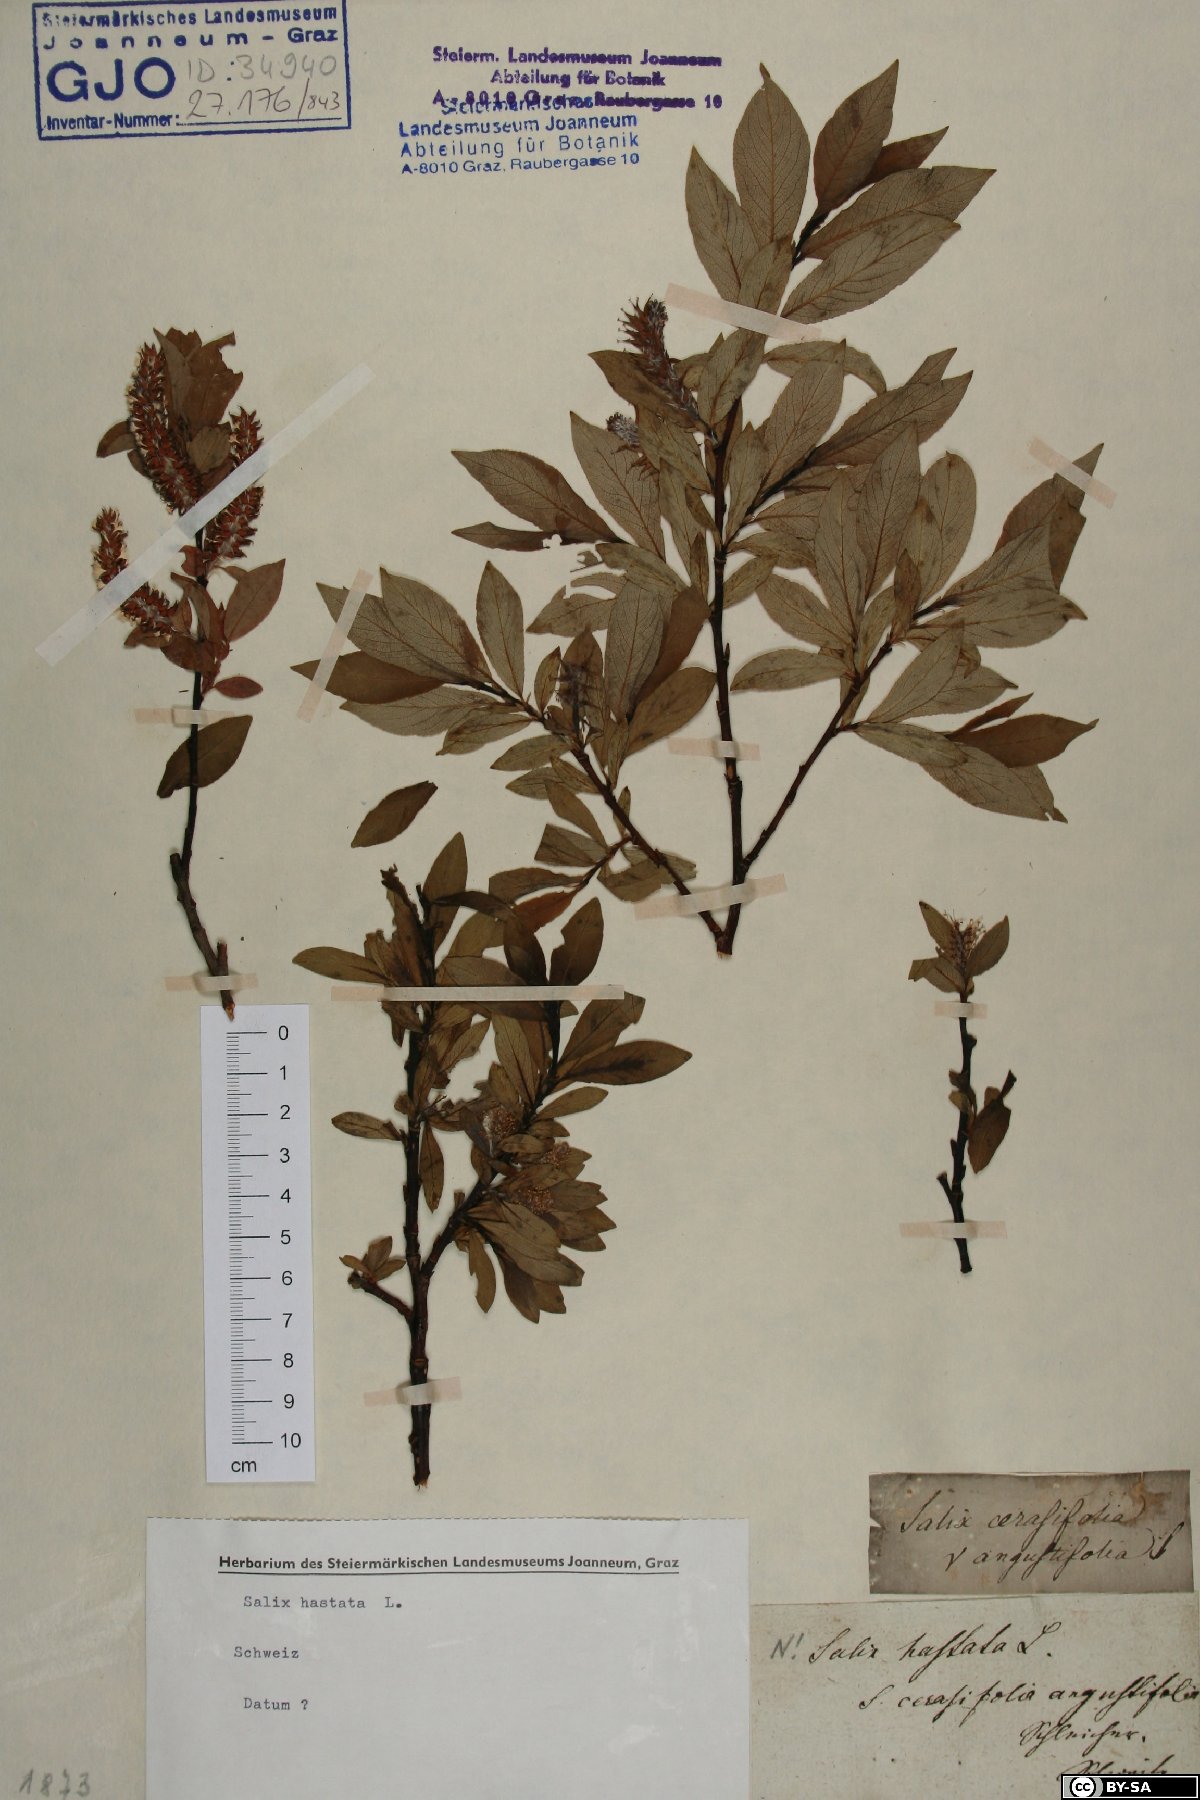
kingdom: Plantae
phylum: Tracheophyta
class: Magnoliopsida
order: Malpighiales
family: Salicaceae
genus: Salix
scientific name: Salix hastata
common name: Halberd willow
